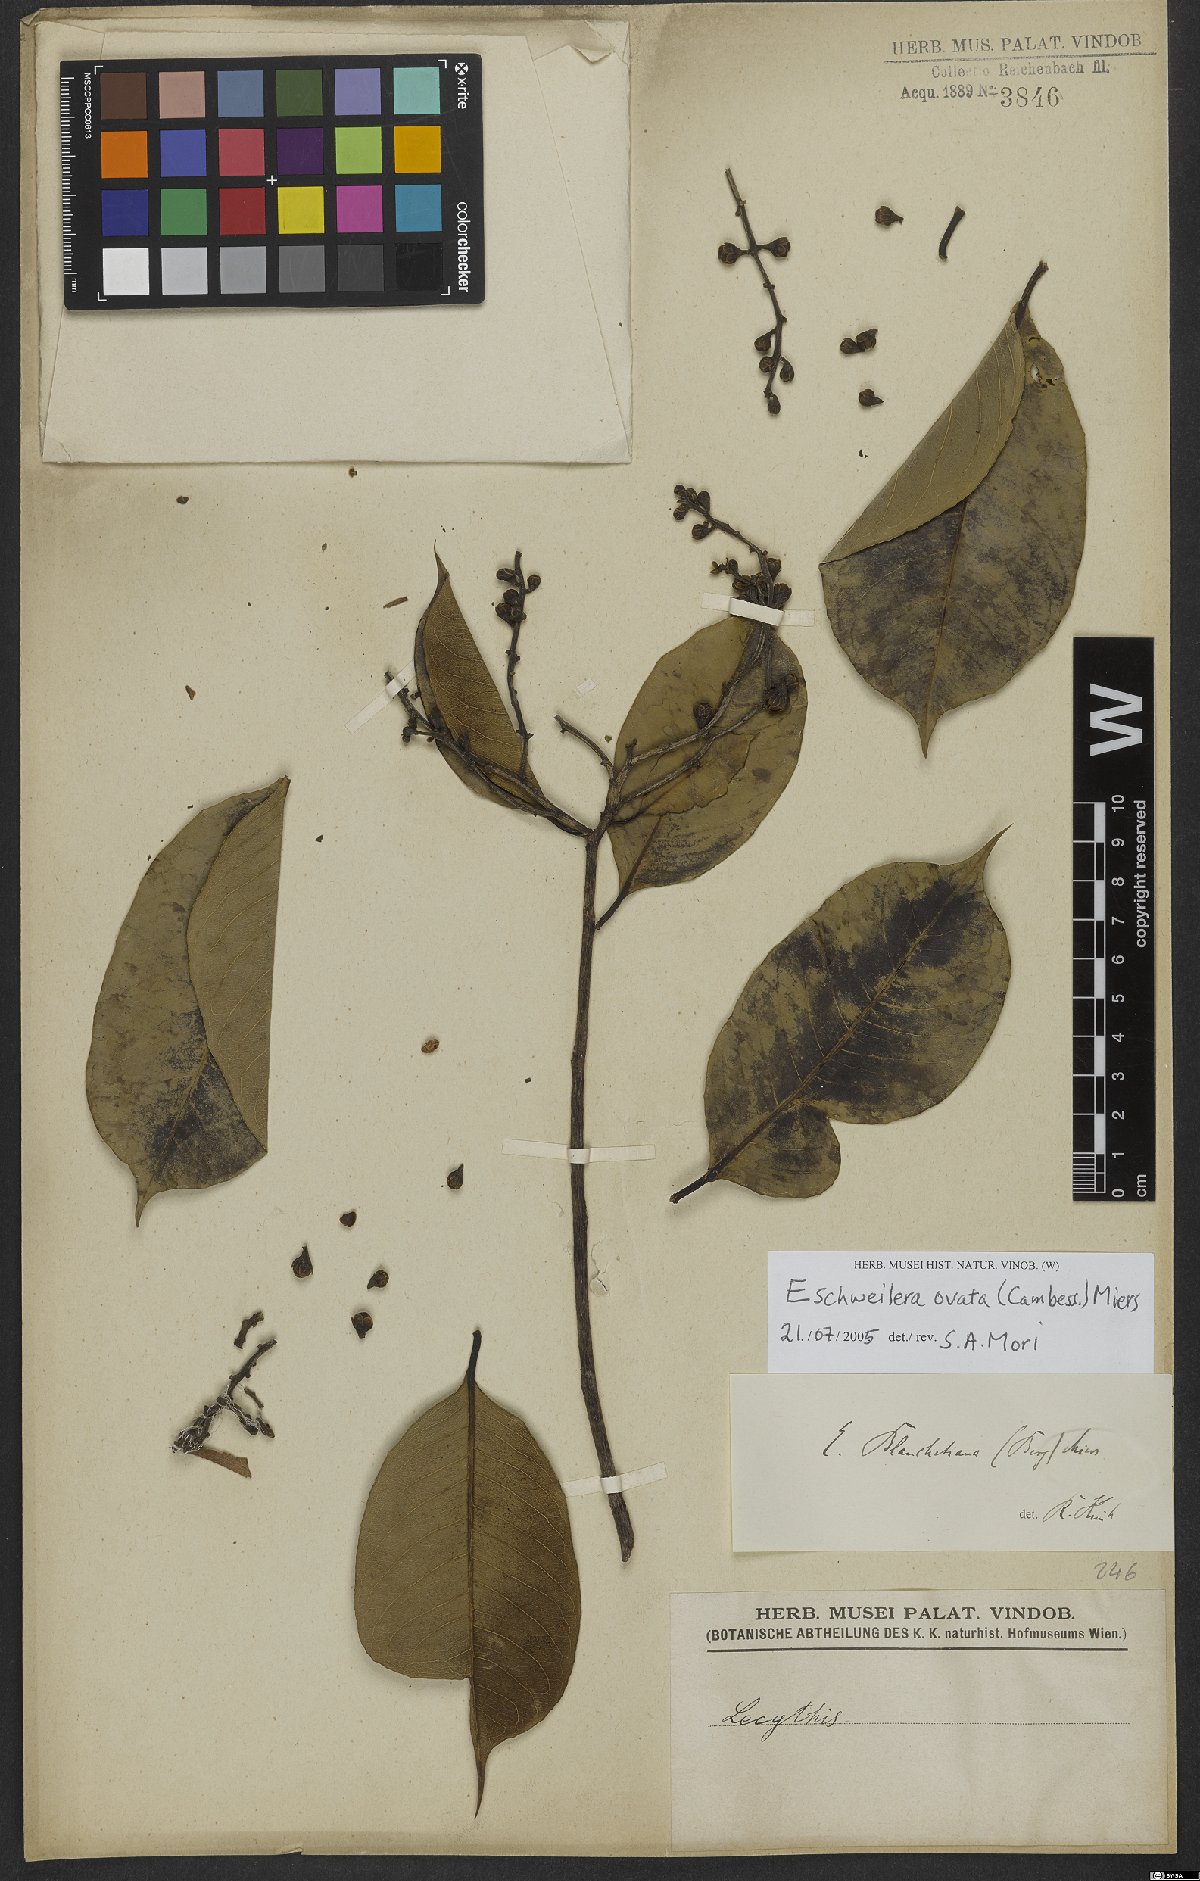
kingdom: Plantae
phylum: Tracheophyta
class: Magnoliopsida
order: Ericales
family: Lecythidaceae
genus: Eschweilera
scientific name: Eschweilera ovata
